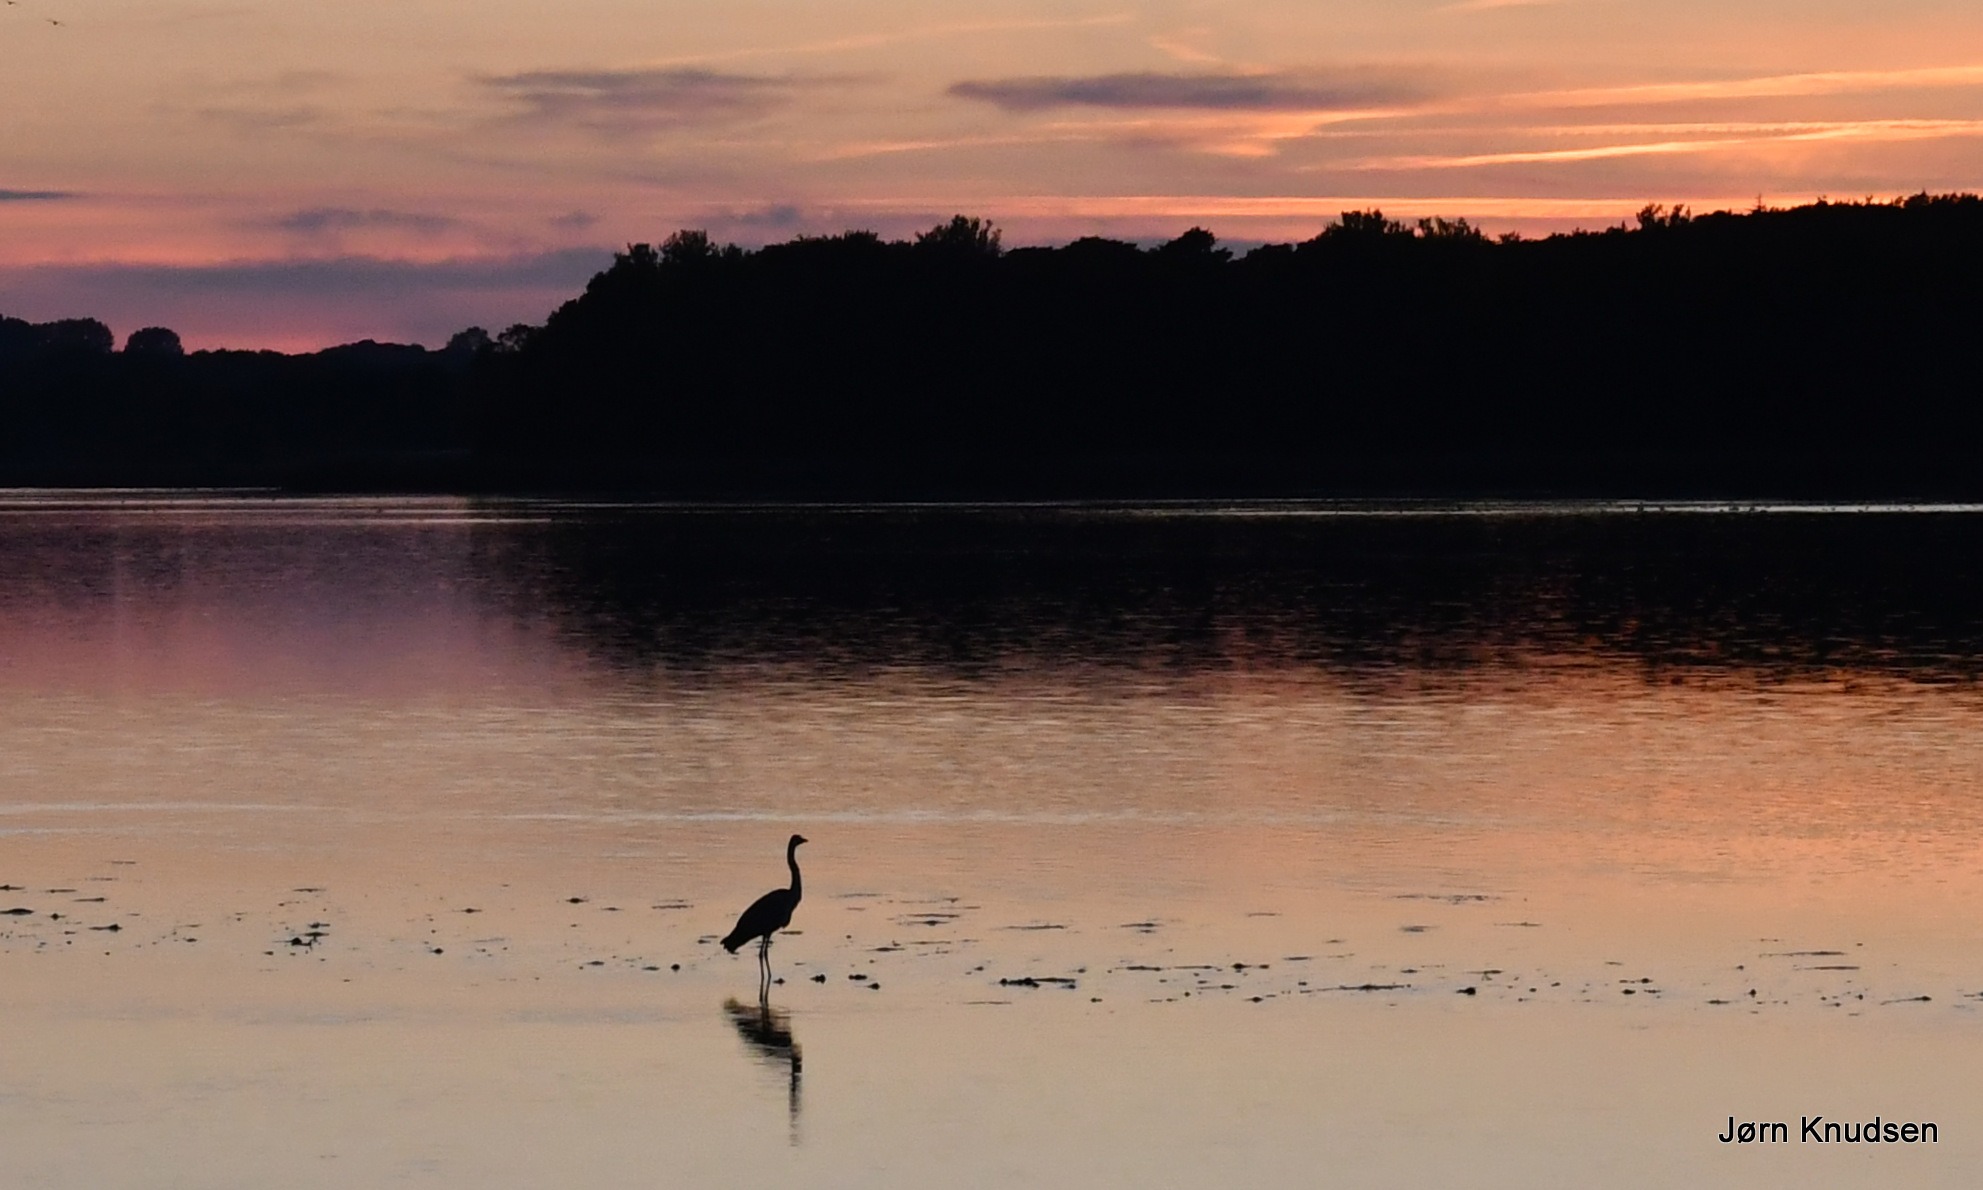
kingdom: Animalia
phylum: Chordata
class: Aves
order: Pelecaniformes
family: Ardeidae
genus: Ardea
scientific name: Ardea cinerea
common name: Fiskehejre
